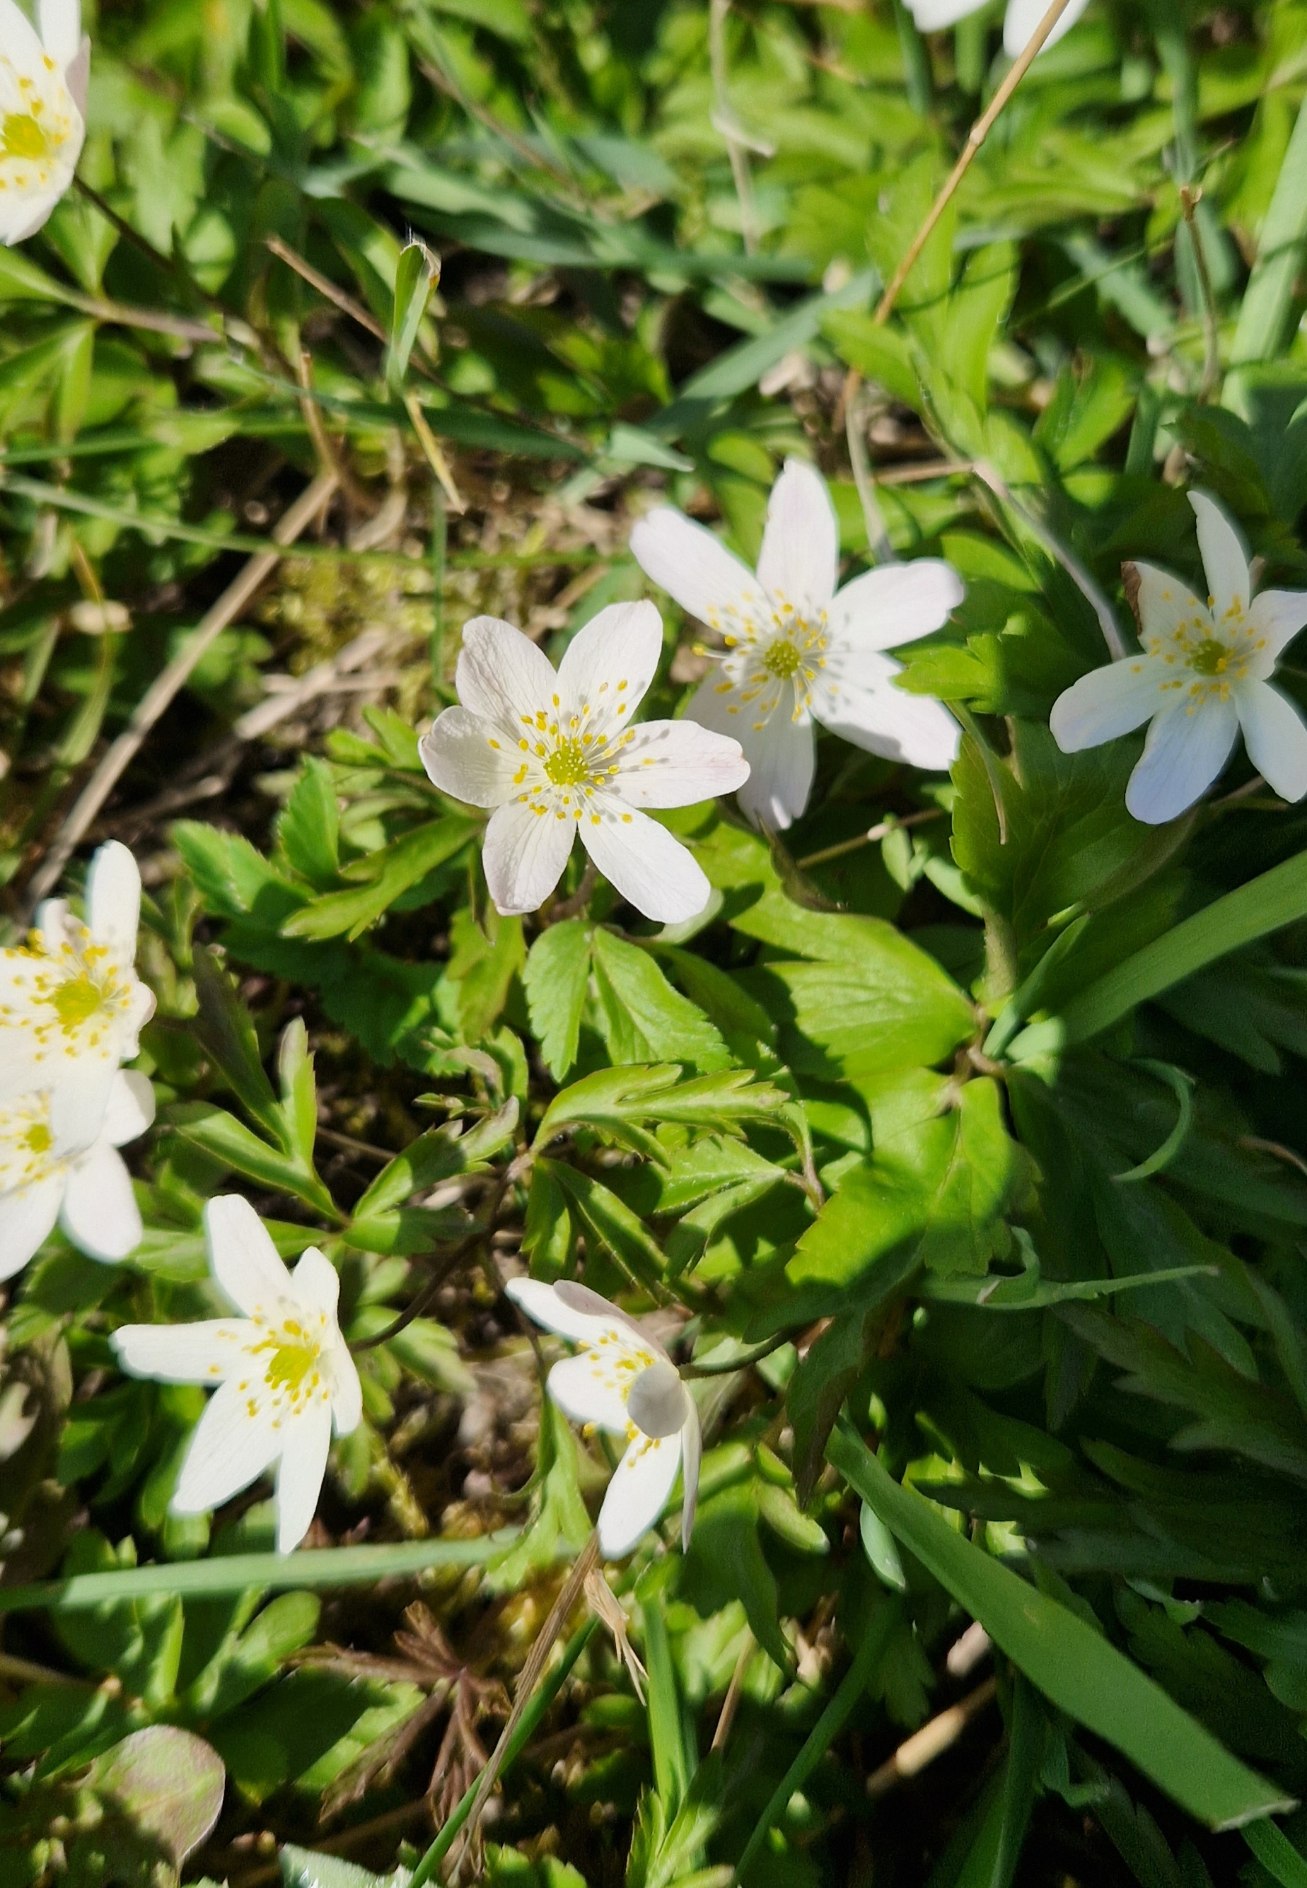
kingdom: Plantae
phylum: Tracheophyta
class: Magnoliopsida
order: Ranunculales
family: Ranunculaceae
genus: Anemone
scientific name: Anemone nemorosa
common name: Hvid anemone
